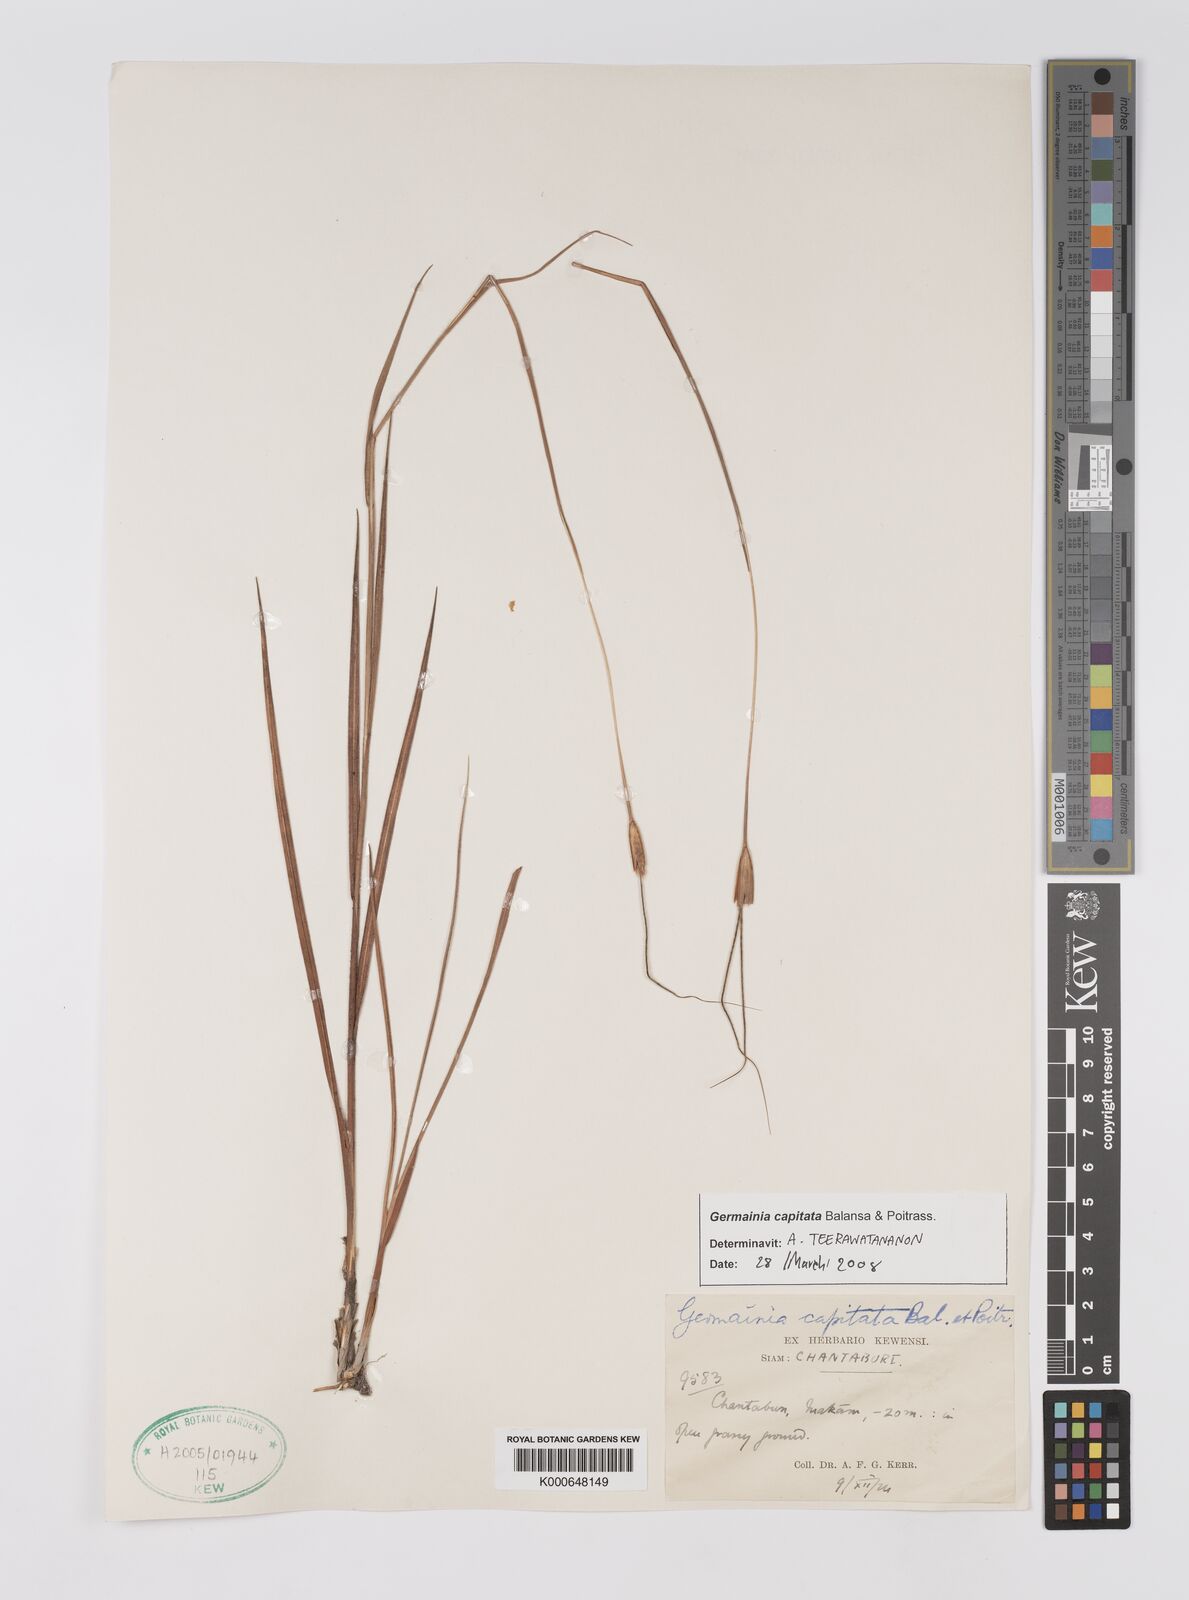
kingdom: Plantae
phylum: Tracheophyta
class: Liliopsida
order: Poales
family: Poaceae
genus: Germainia
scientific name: Germainia capitata
